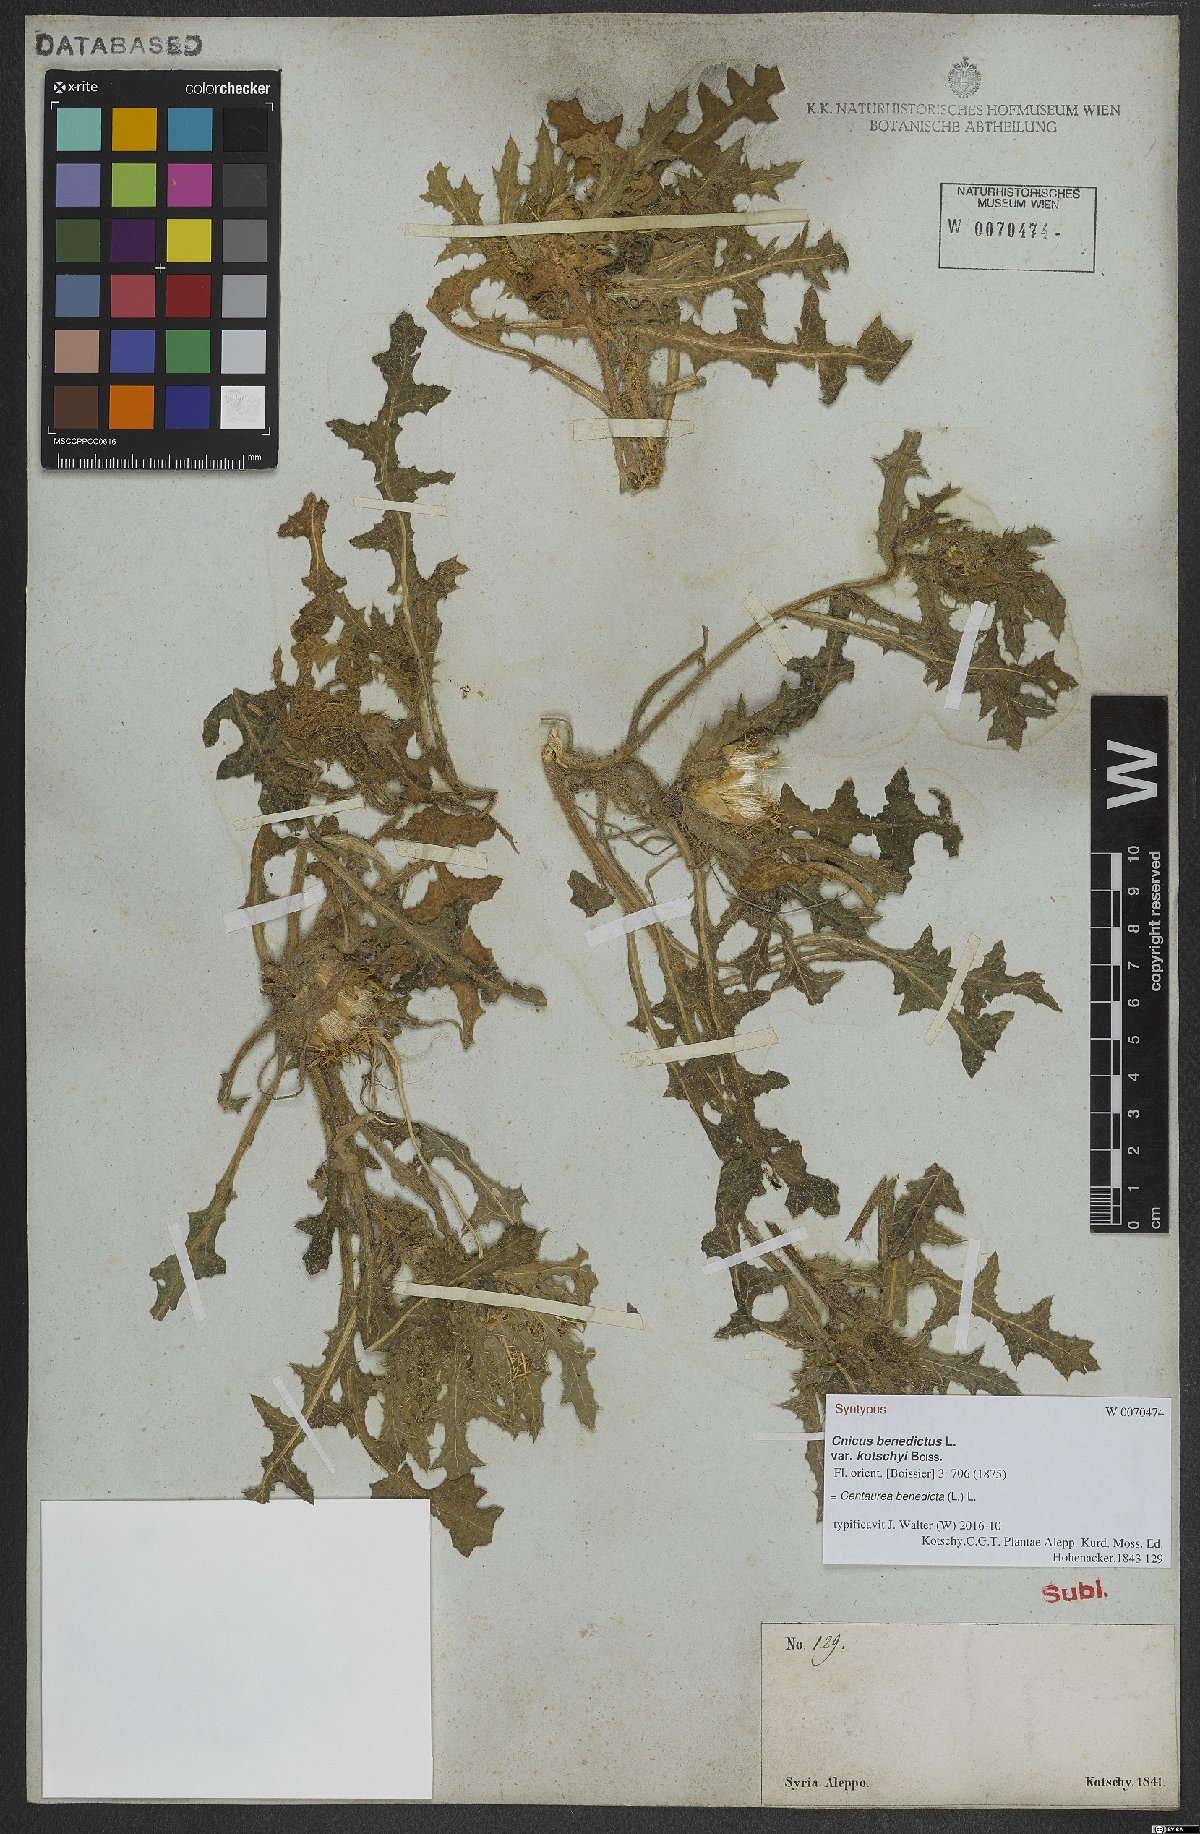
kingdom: Plantae
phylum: Tracheophyta
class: Magnoliopsida
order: Asterales
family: Asteraceae
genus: Centaurea
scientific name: Centaurea benedicta
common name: Blessed thistle
